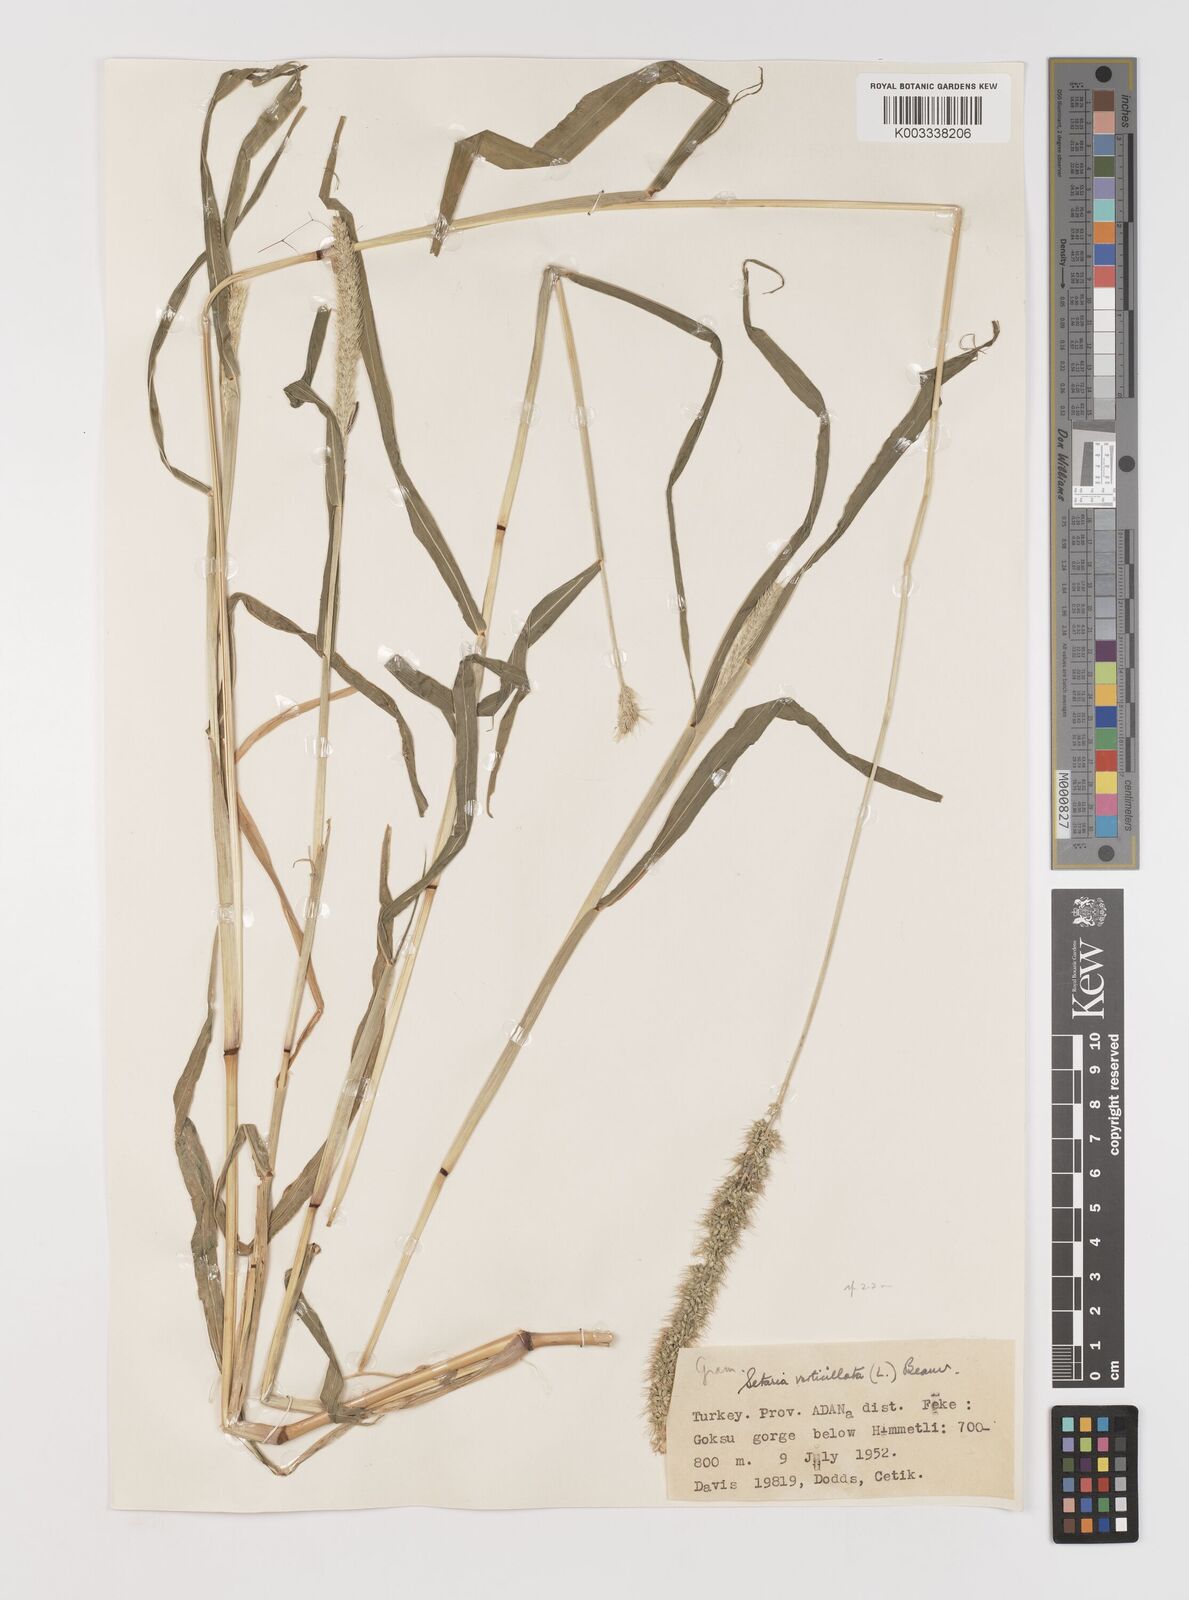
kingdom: Plantae
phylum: Tracheophyta
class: Liliopsida
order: Poales
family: Poaceae
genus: Setaria
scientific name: Setaria verticillata
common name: Hooked bristlegrass
